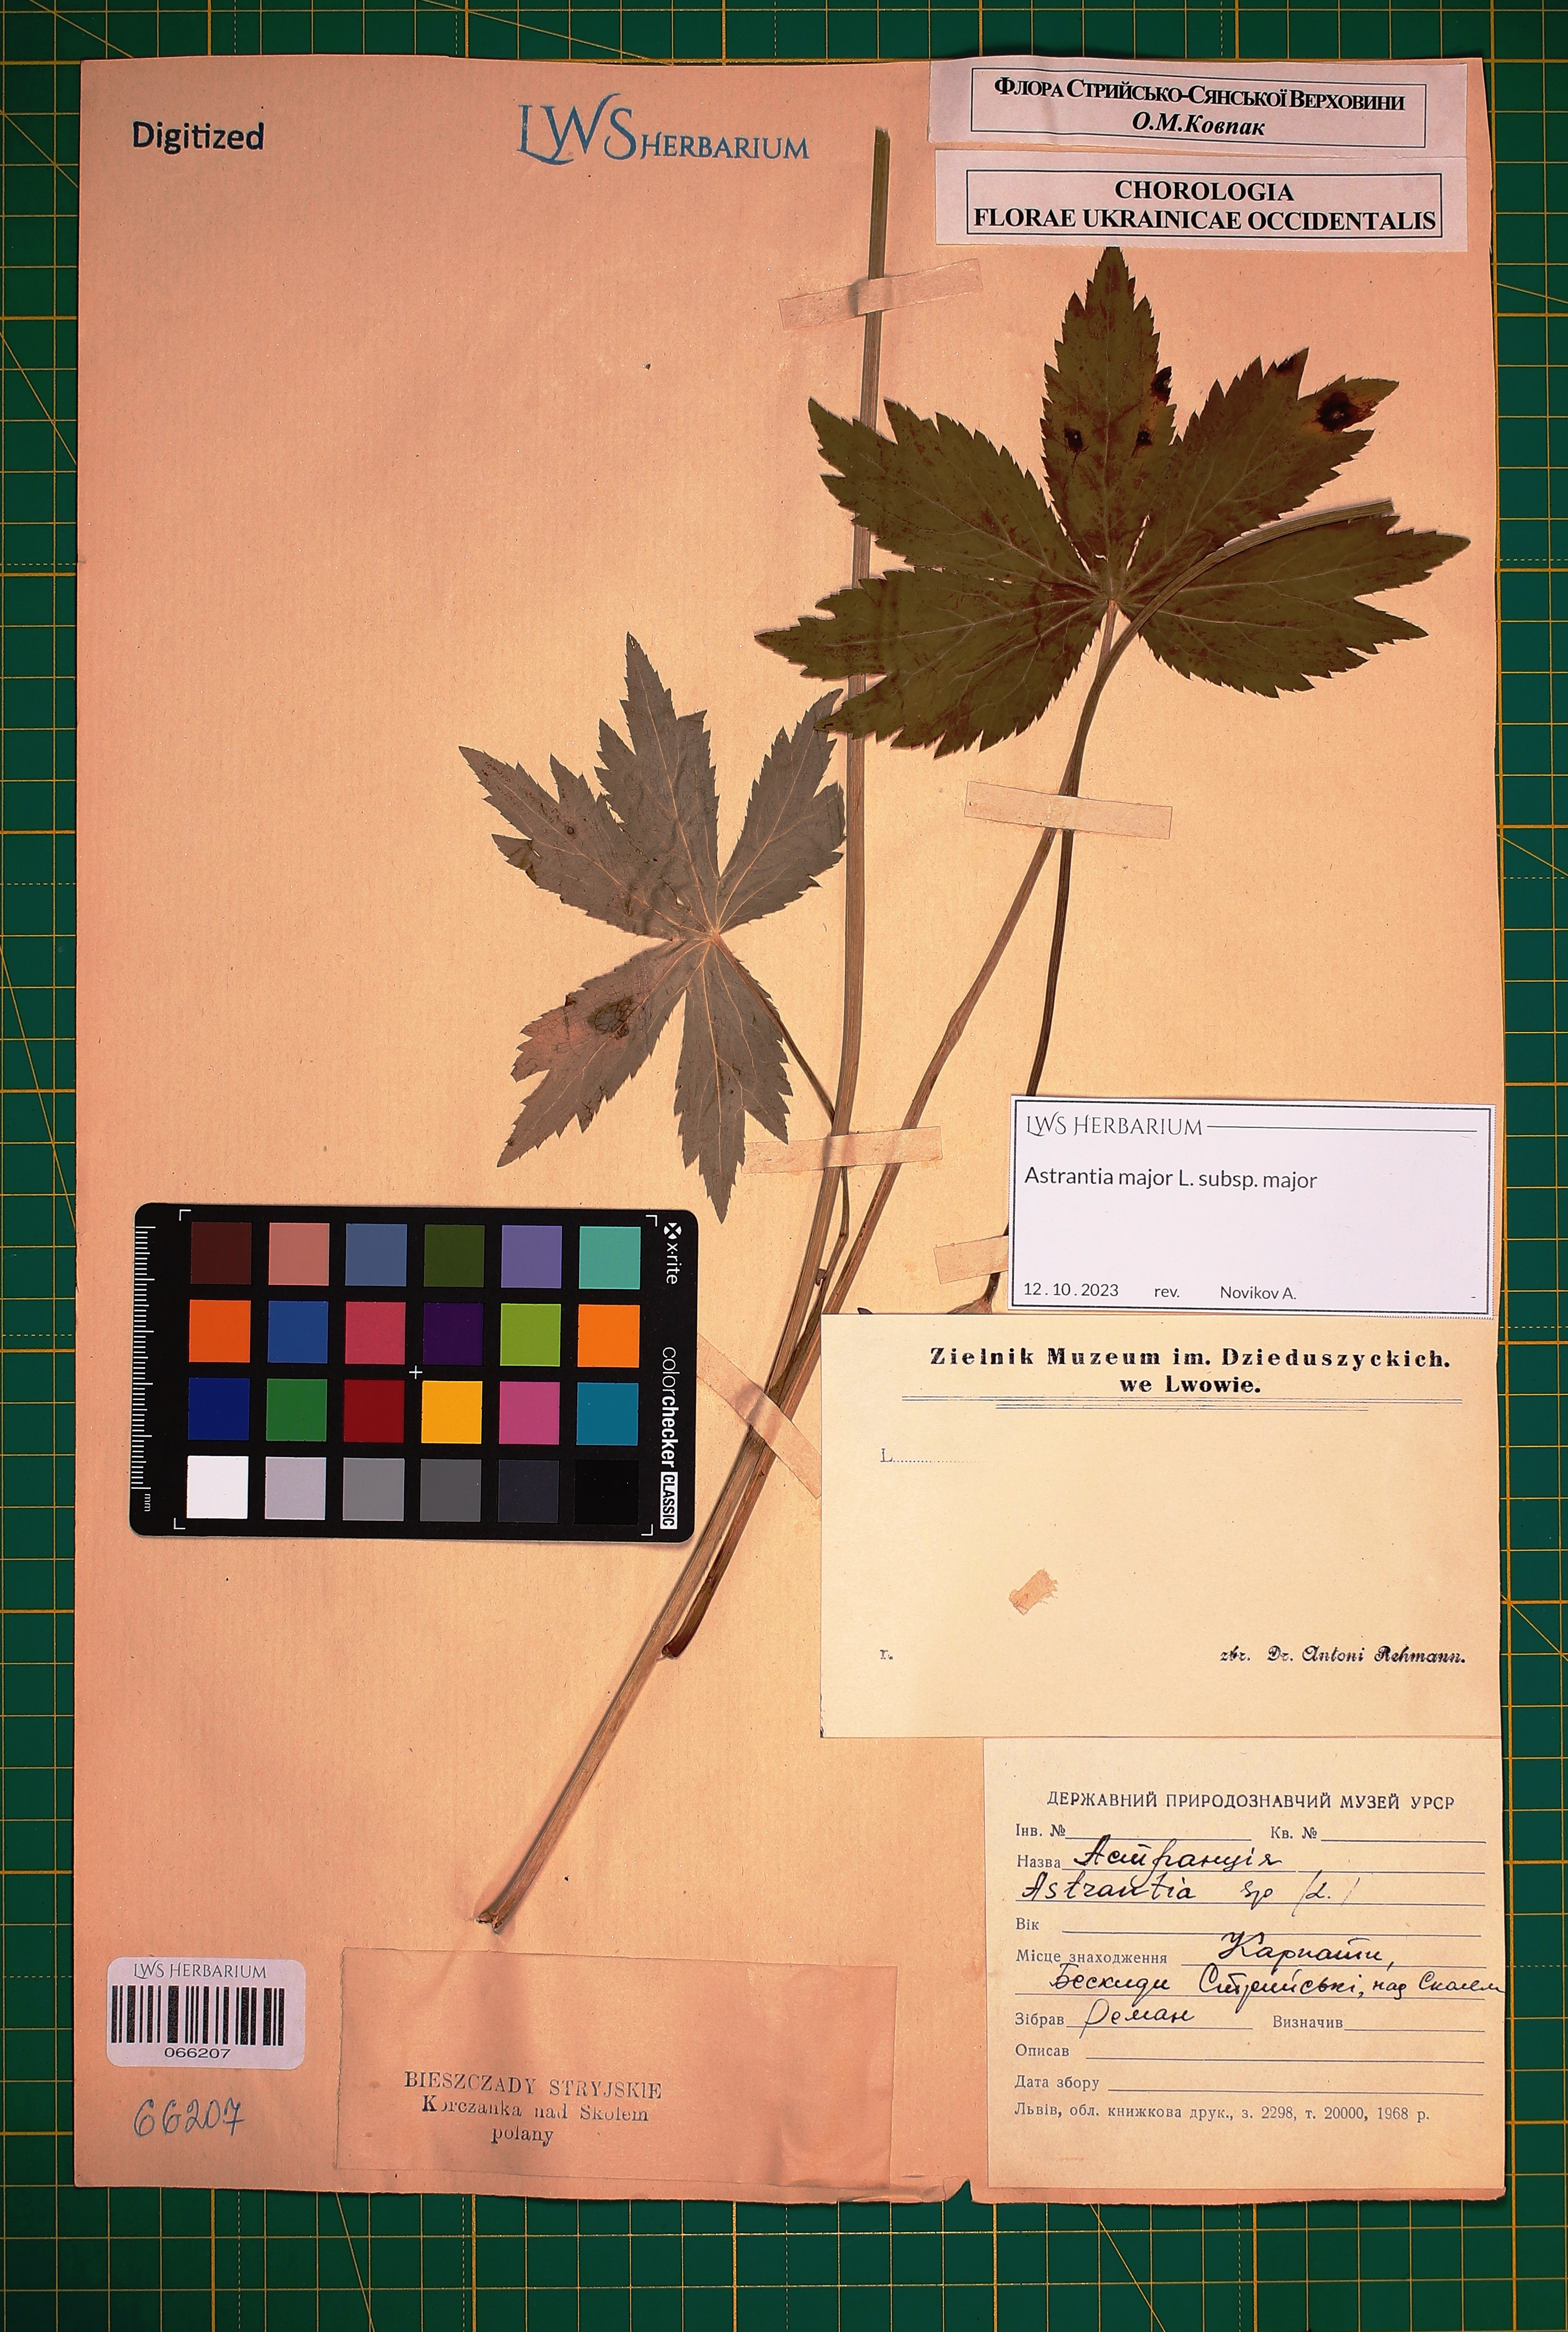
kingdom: Plantae
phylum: Tracheophyta
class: Magnoliopsida
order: Apiales
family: Apiaceae
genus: Astrantia
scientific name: Astrantia major
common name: Greater masterwort
